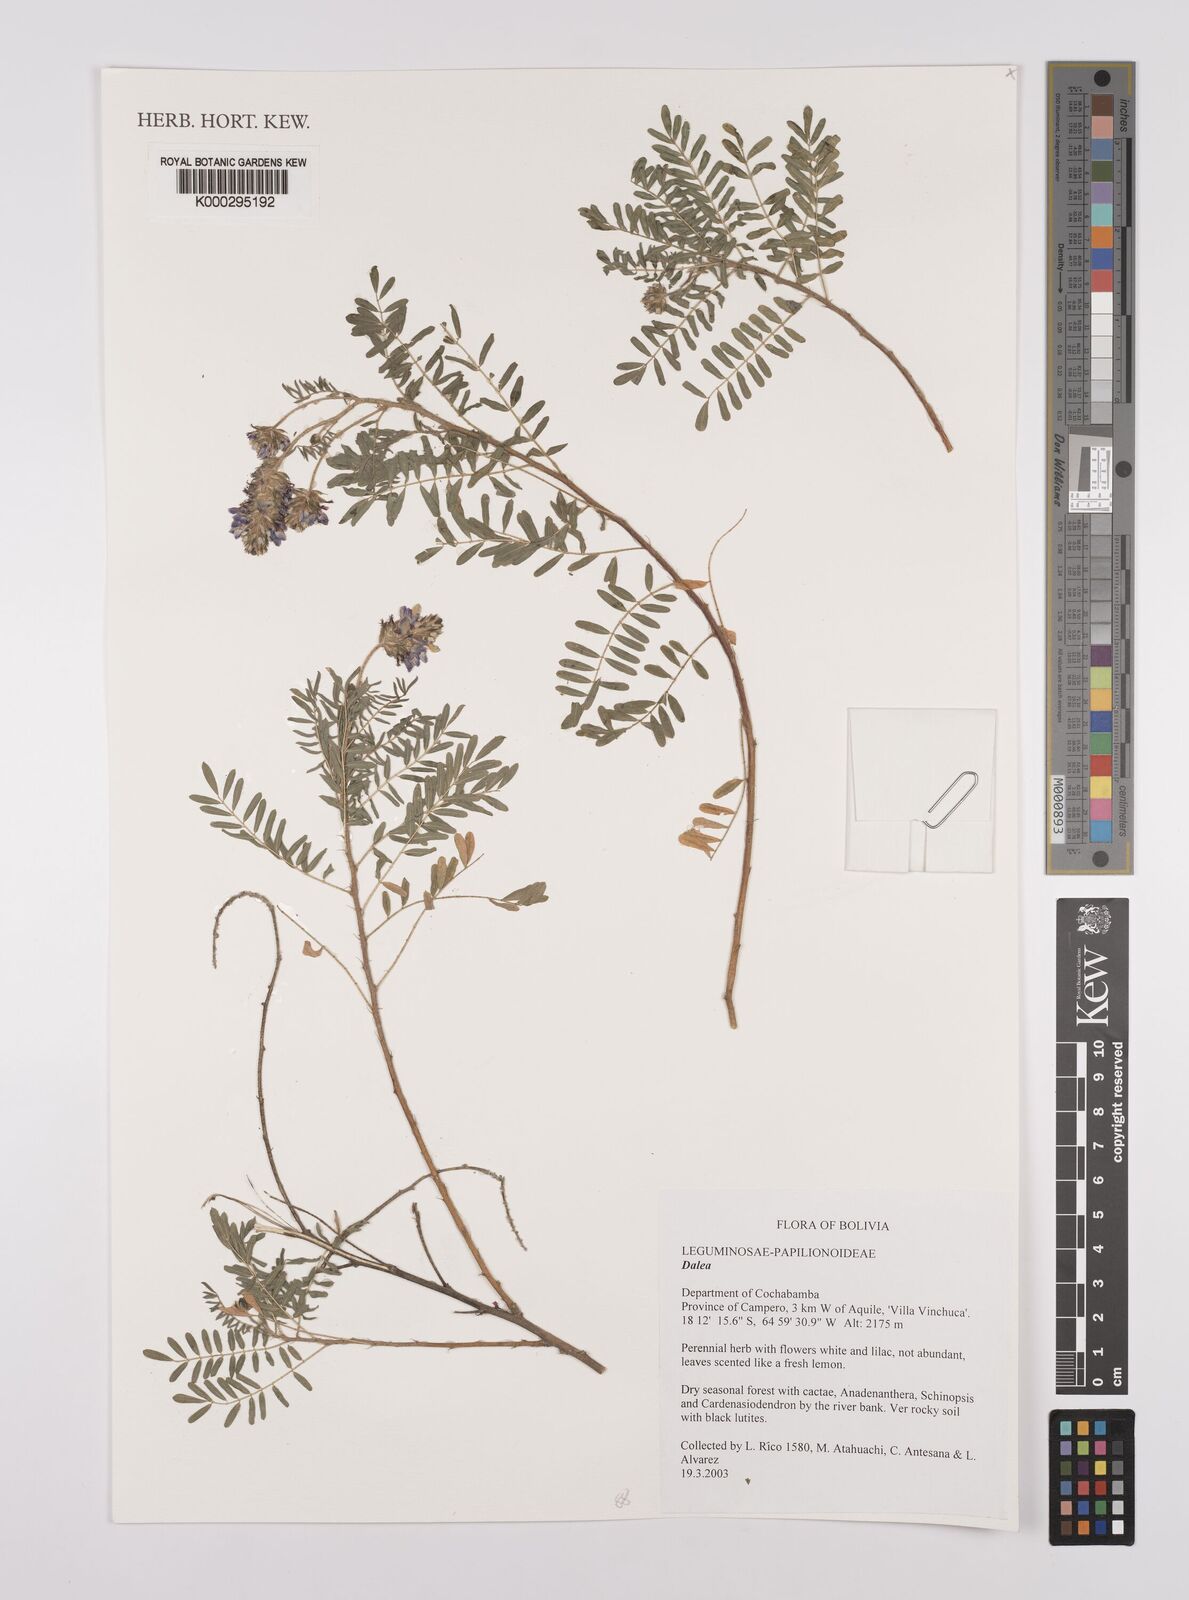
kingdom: Plantae
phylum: Tracheophyta
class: Magnoliopsida
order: Fabales
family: Fabaceae
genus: Dalea
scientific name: Dalea
